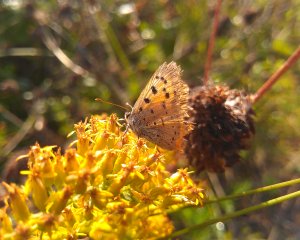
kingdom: Animalia
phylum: Arthropoda
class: Insecta
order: Lepidoptera
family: Lycaenidae
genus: Lycaena
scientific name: Lycaena phlaeas
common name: American Copper
